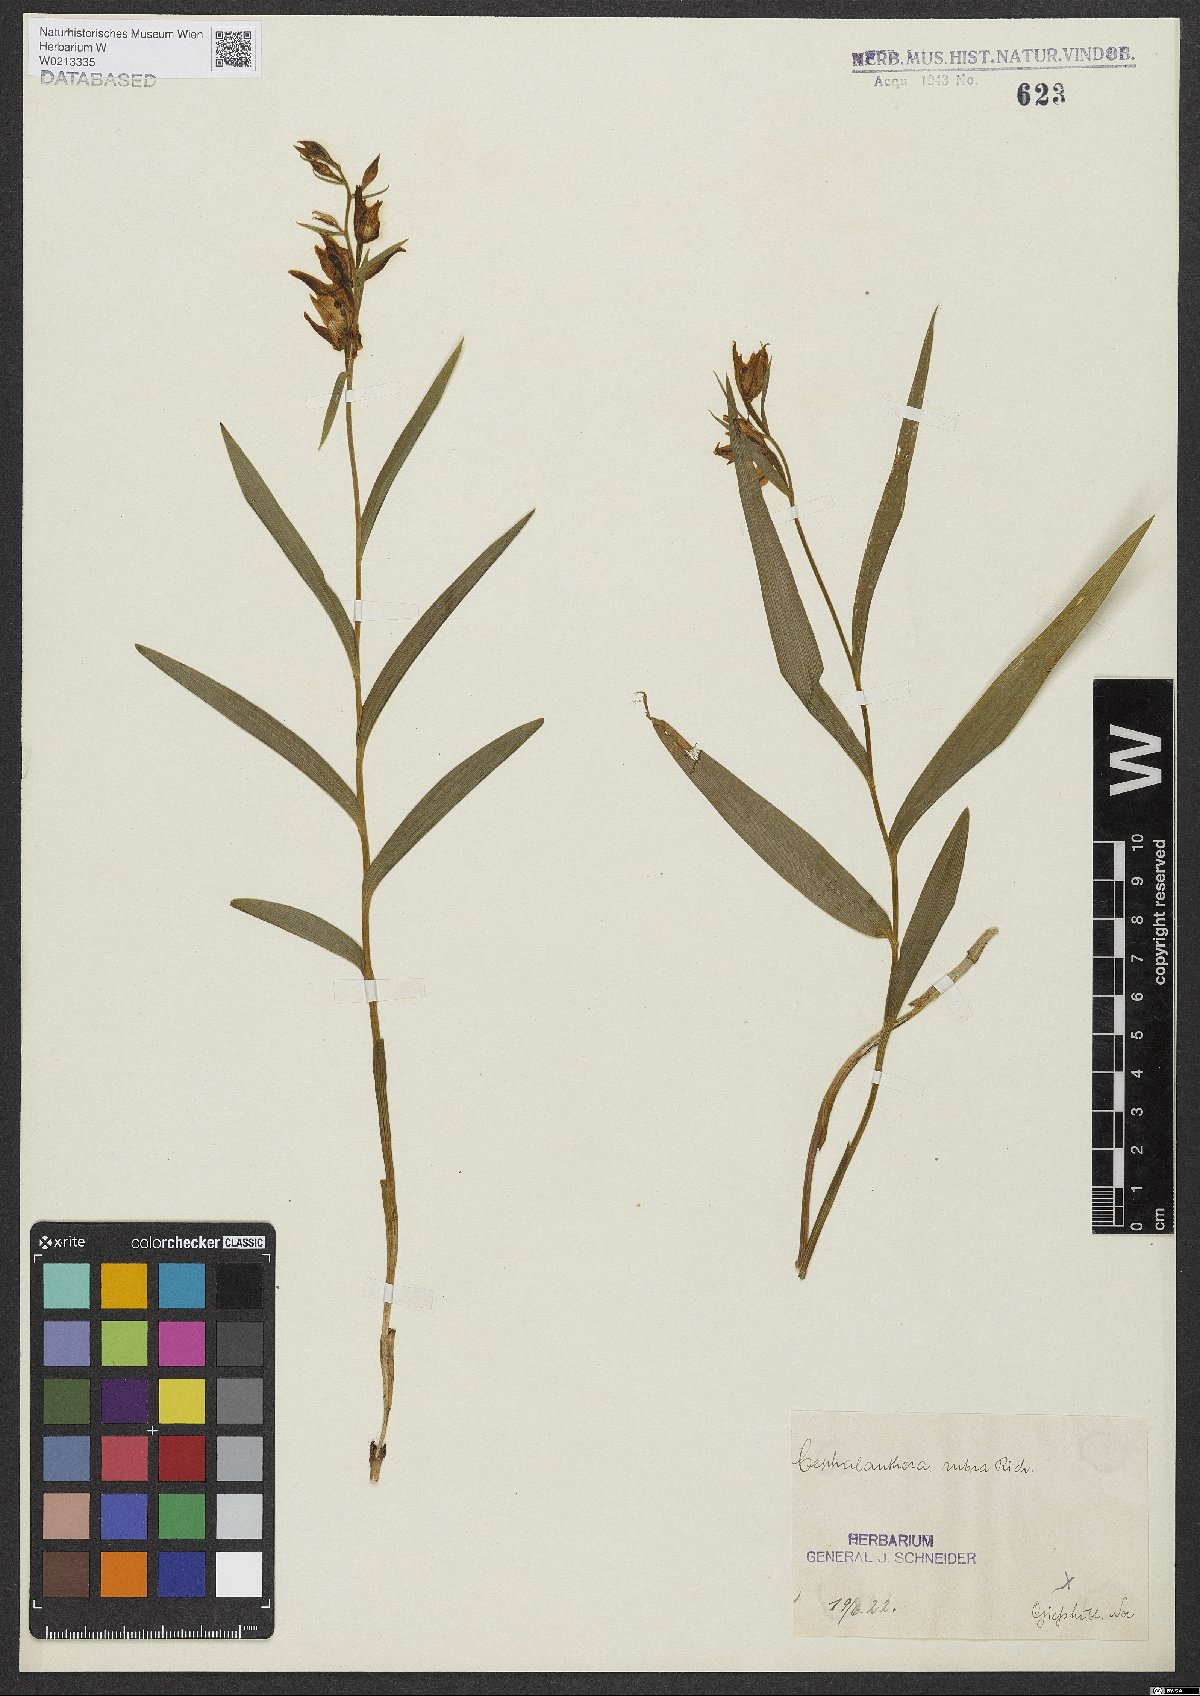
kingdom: Plantae
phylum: Tracheophyta
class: Liliopsida
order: Asparagales
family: Orchidaceae
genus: Cephalanthera
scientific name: Cephalanthera rubra
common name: Red helleborine
